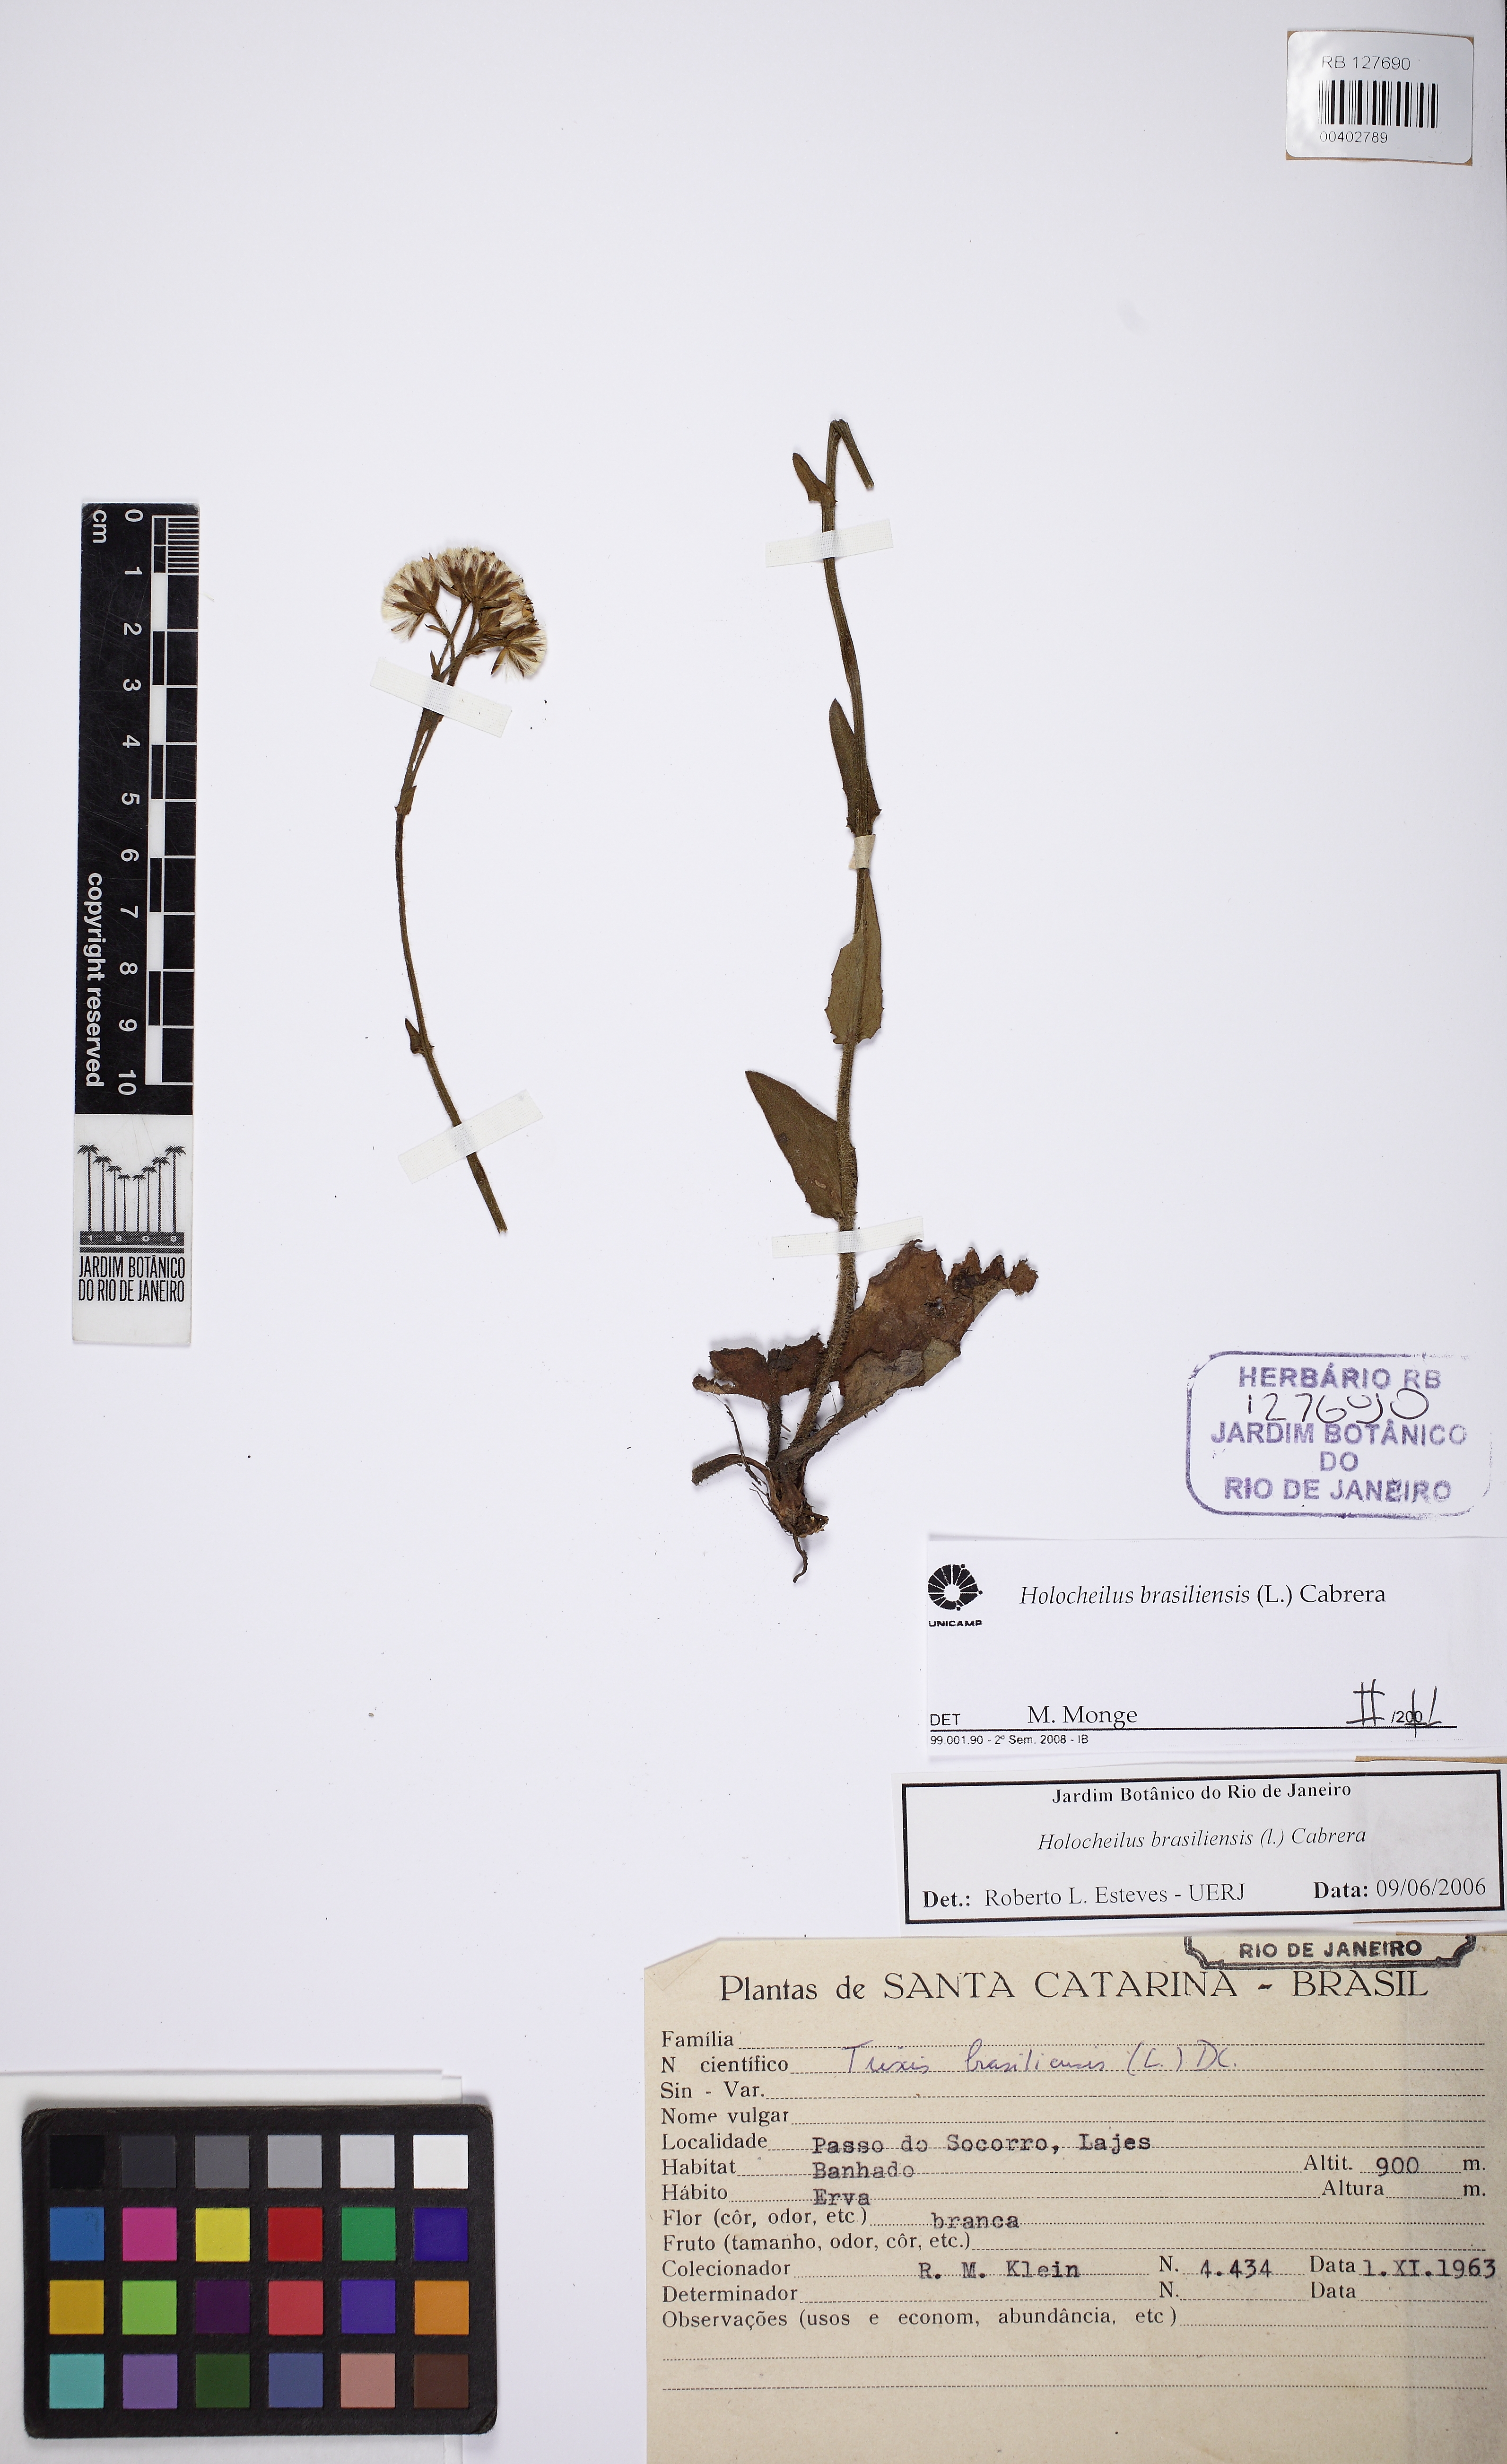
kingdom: Plantae
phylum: Tracheophyta
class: Magnoliopsida
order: Asterales
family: Asteraceae
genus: Holocheilus
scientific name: Holocheilus brasiliensis
